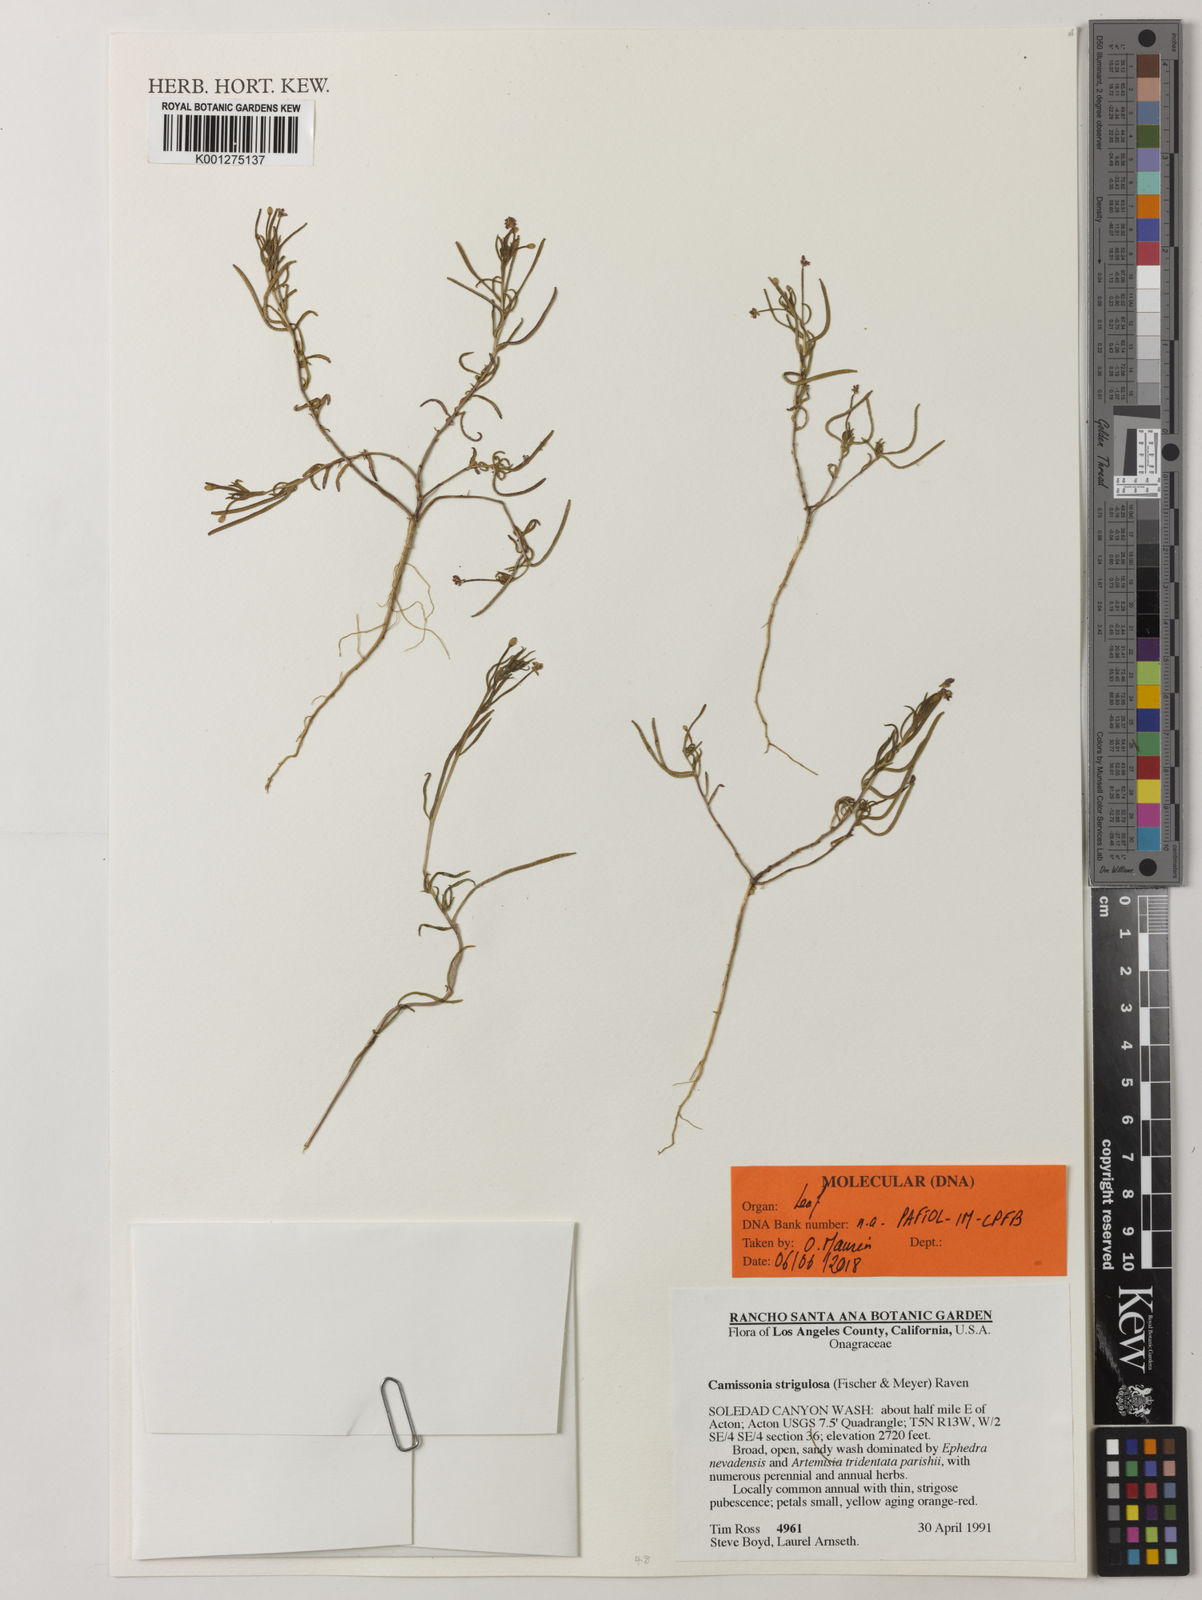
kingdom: Plantae
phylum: Tracheophyta
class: Magnoliopsida
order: Myrtales
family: Onagraceae
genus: Camissonia
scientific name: Camissonia strigulosa
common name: Contorted-primrose
